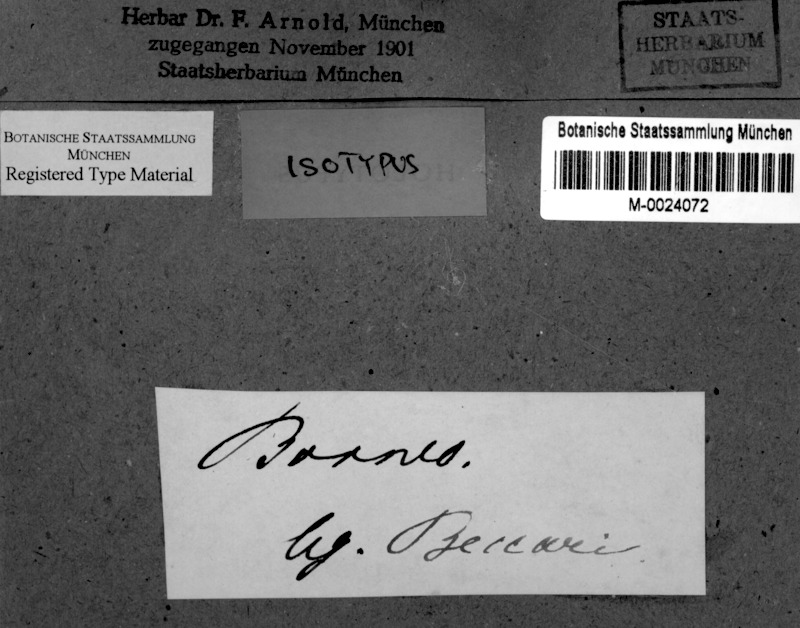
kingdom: Fungi
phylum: Ascomycota
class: Eurotiomycetes
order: Pyrenulales
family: Pyrenulaceae
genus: Pyrenula
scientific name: Pyrenula
